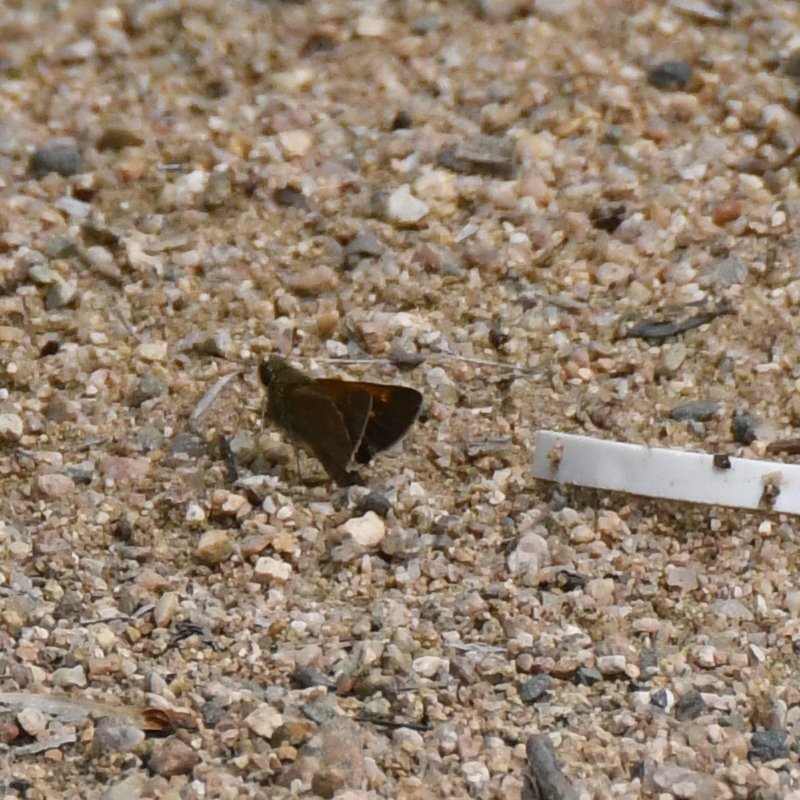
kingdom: Animalia
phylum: Arthropoda
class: Insecta
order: Lepidoptera
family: Hesperiidae
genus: Polites
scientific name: Polites themistocles
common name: Tawny-edged Skipper
